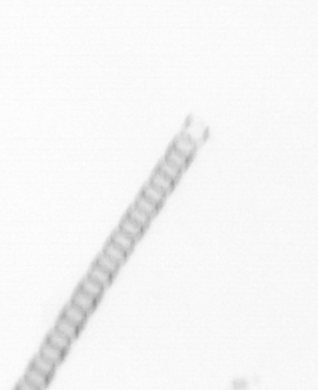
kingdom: Chromista
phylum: Ochrophyta
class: Bacillariophyceae
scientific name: Bacillariophyceae
